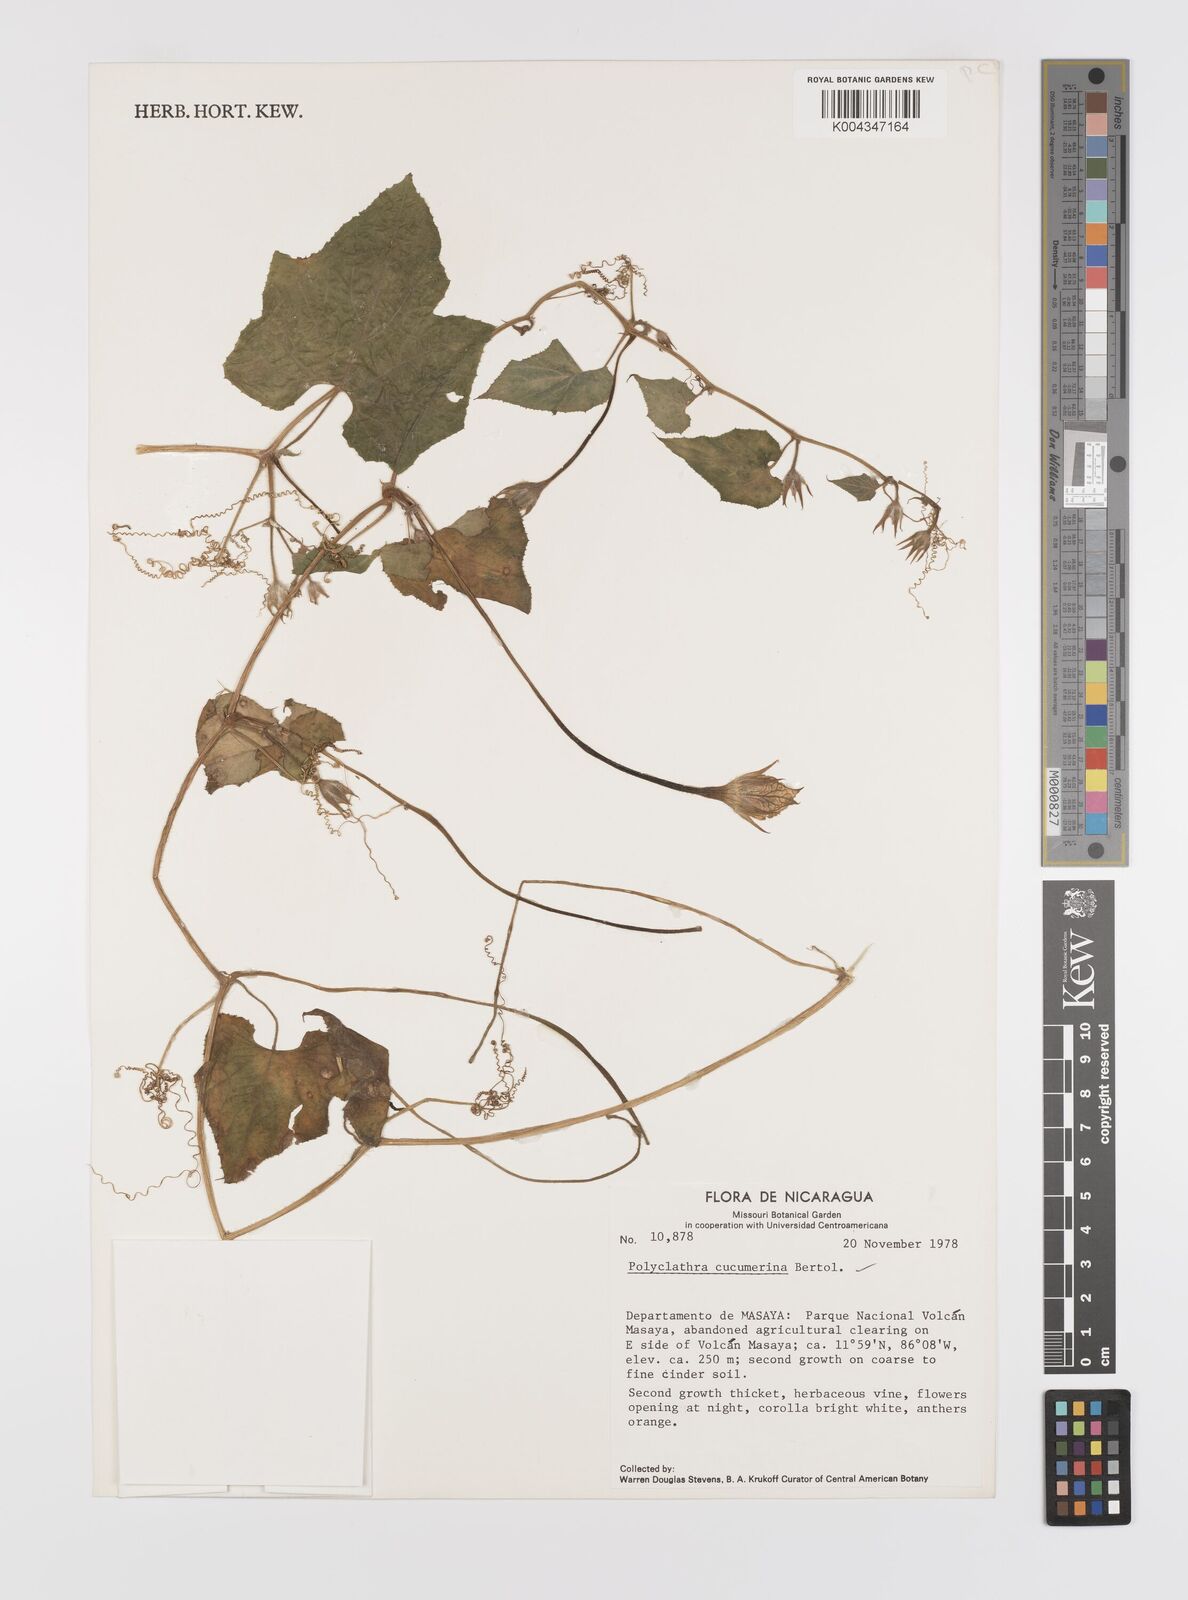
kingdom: Plantae
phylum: Tracheophyta
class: Magnoliopsida
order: Cucurbitales
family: Cucurbitaceae
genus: Polyclathra
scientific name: Polyclathra cucumerina
